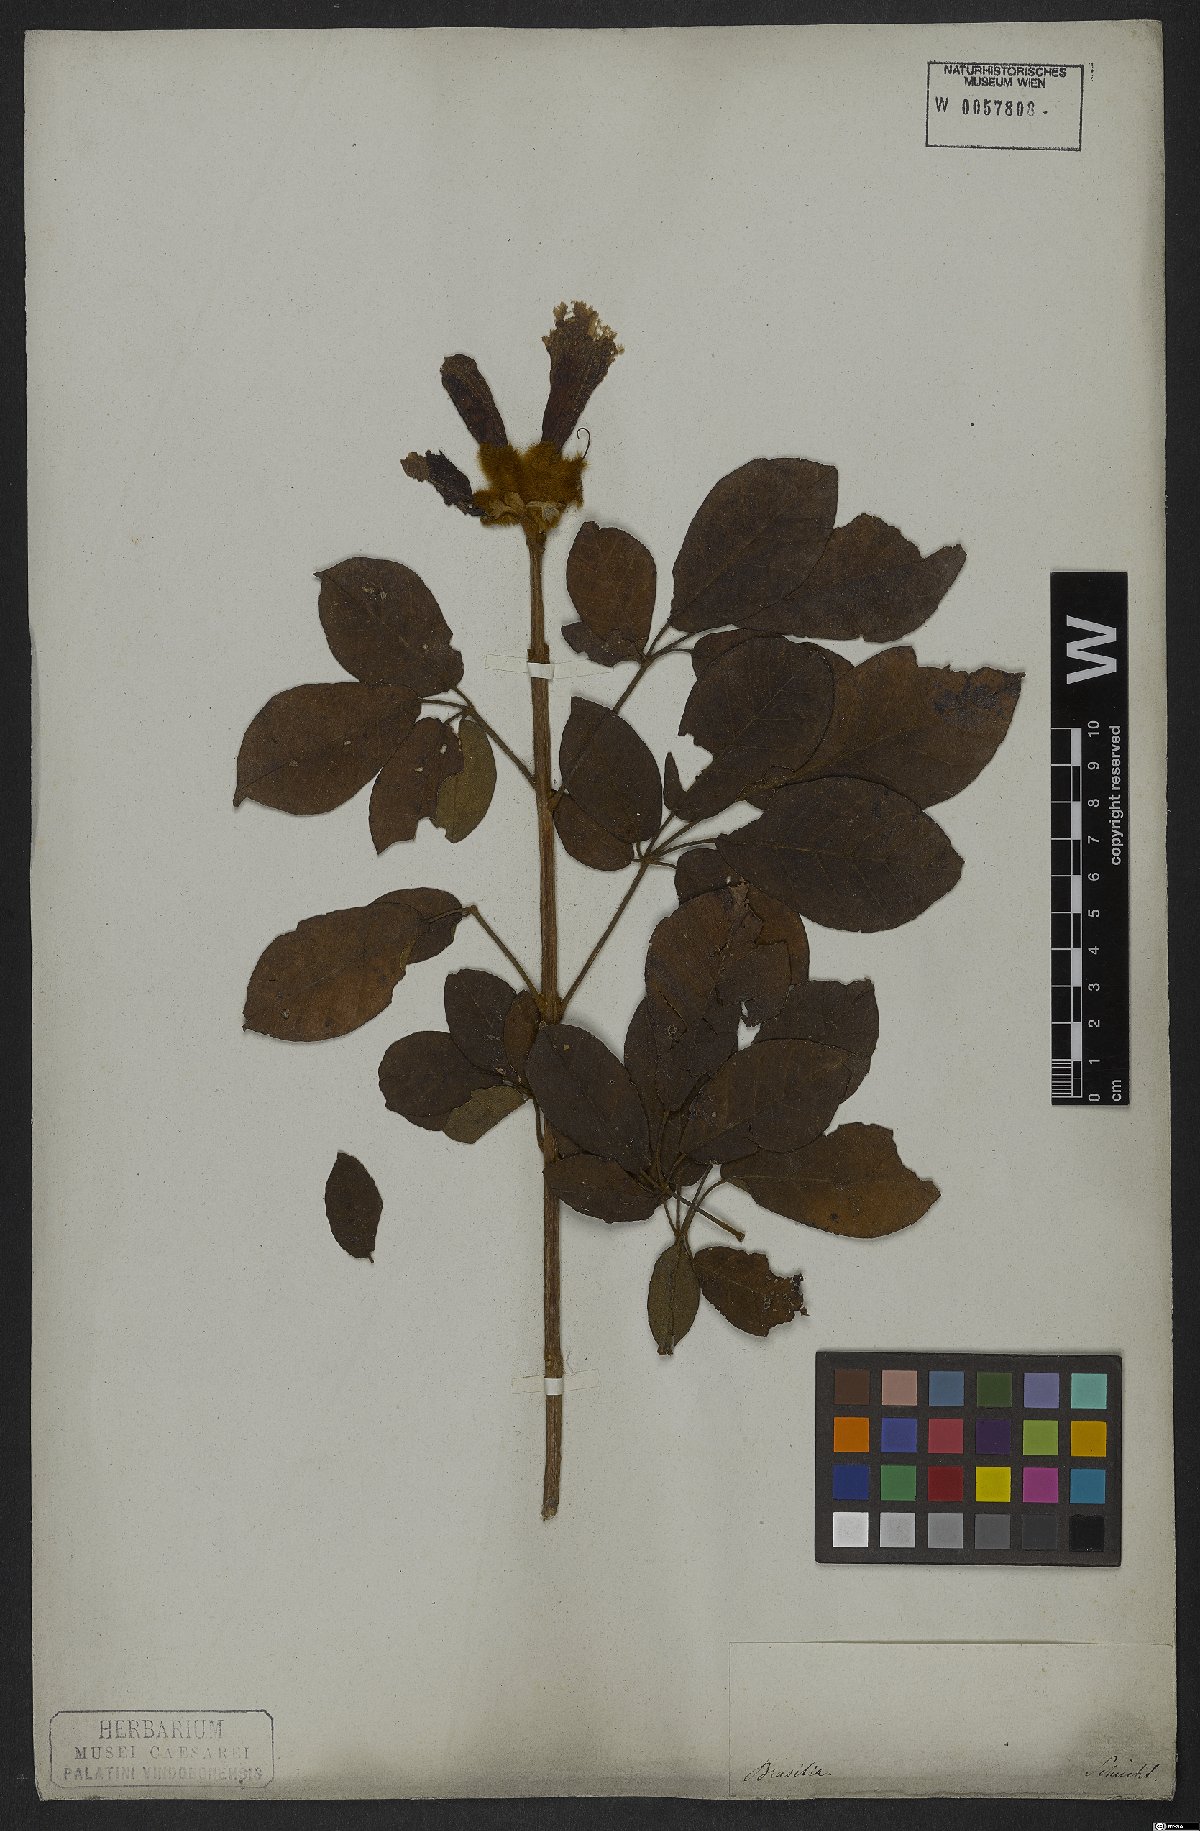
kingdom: Plantae
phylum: Tracheophyta
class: Magnoliopsida
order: Lamiales
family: Bignoniaceae
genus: Handroanthus
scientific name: Handroanthus chrysotrichus
